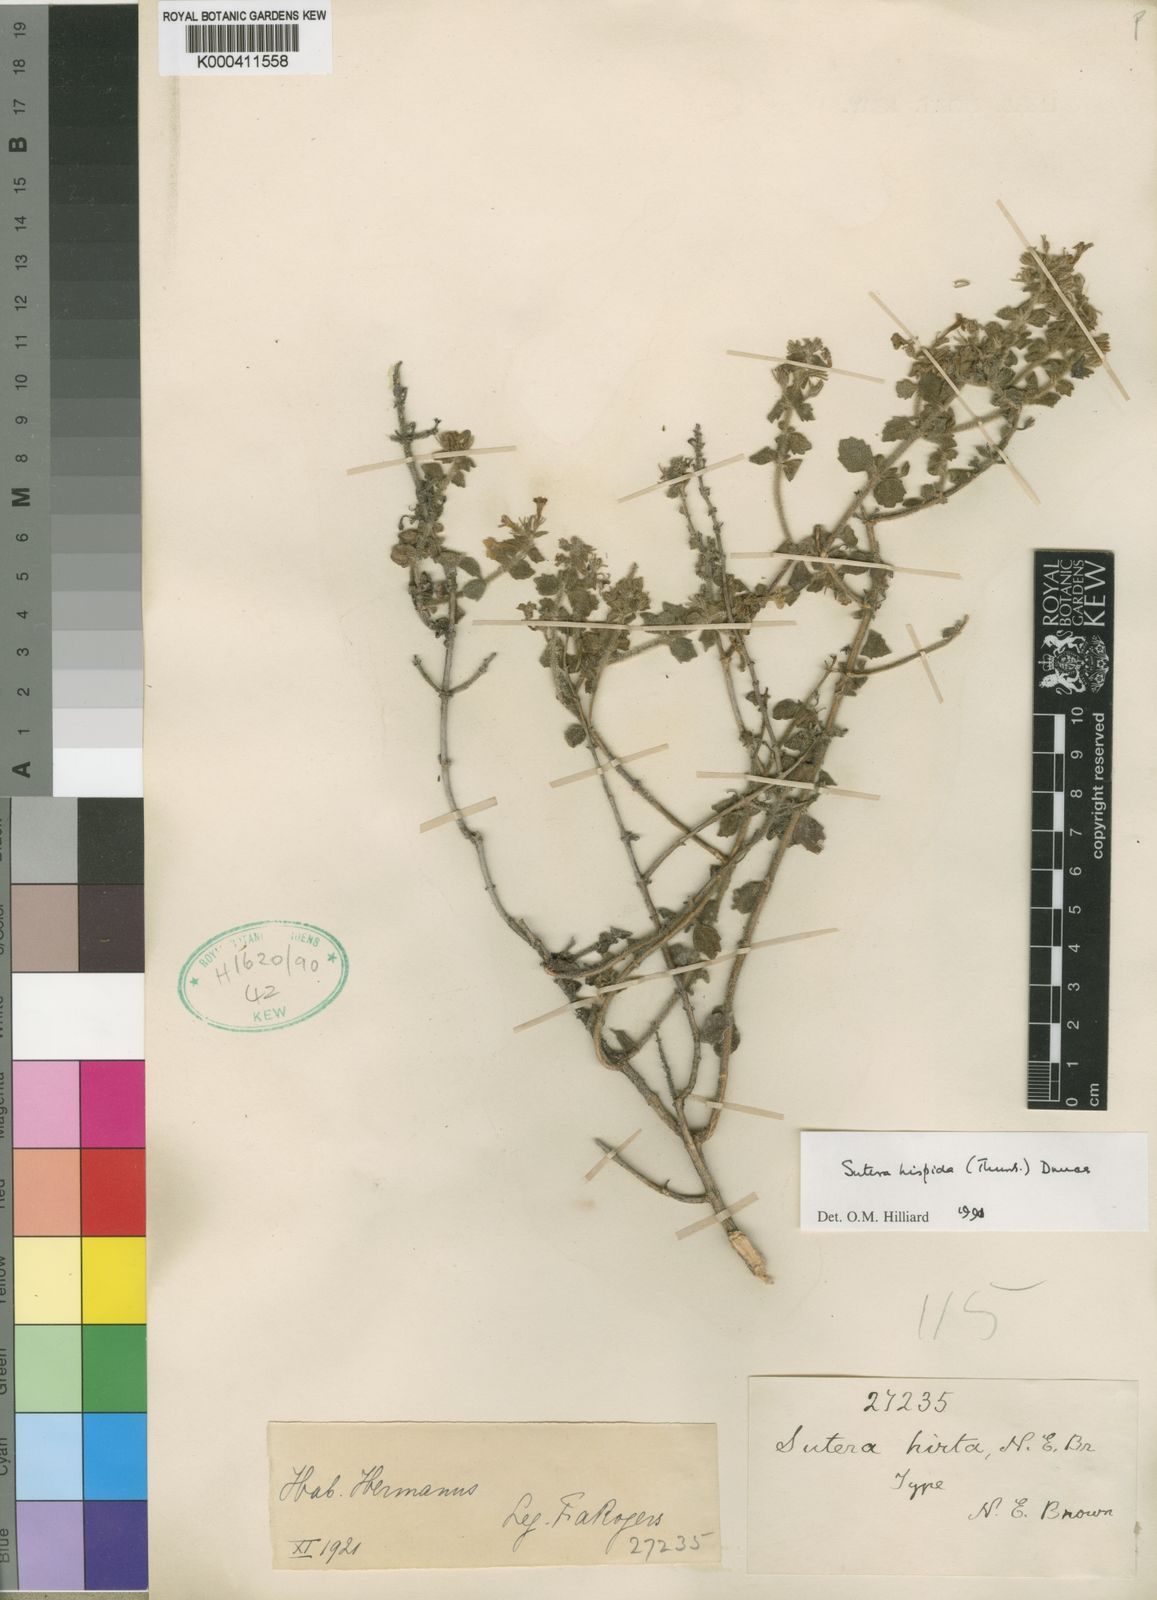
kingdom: Plantae
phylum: Tracheophyta
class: Magnoliopsida
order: Lamiales
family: Scrophulariaceae
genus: Chaenostoma
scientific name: Chaenostoma hispidum
